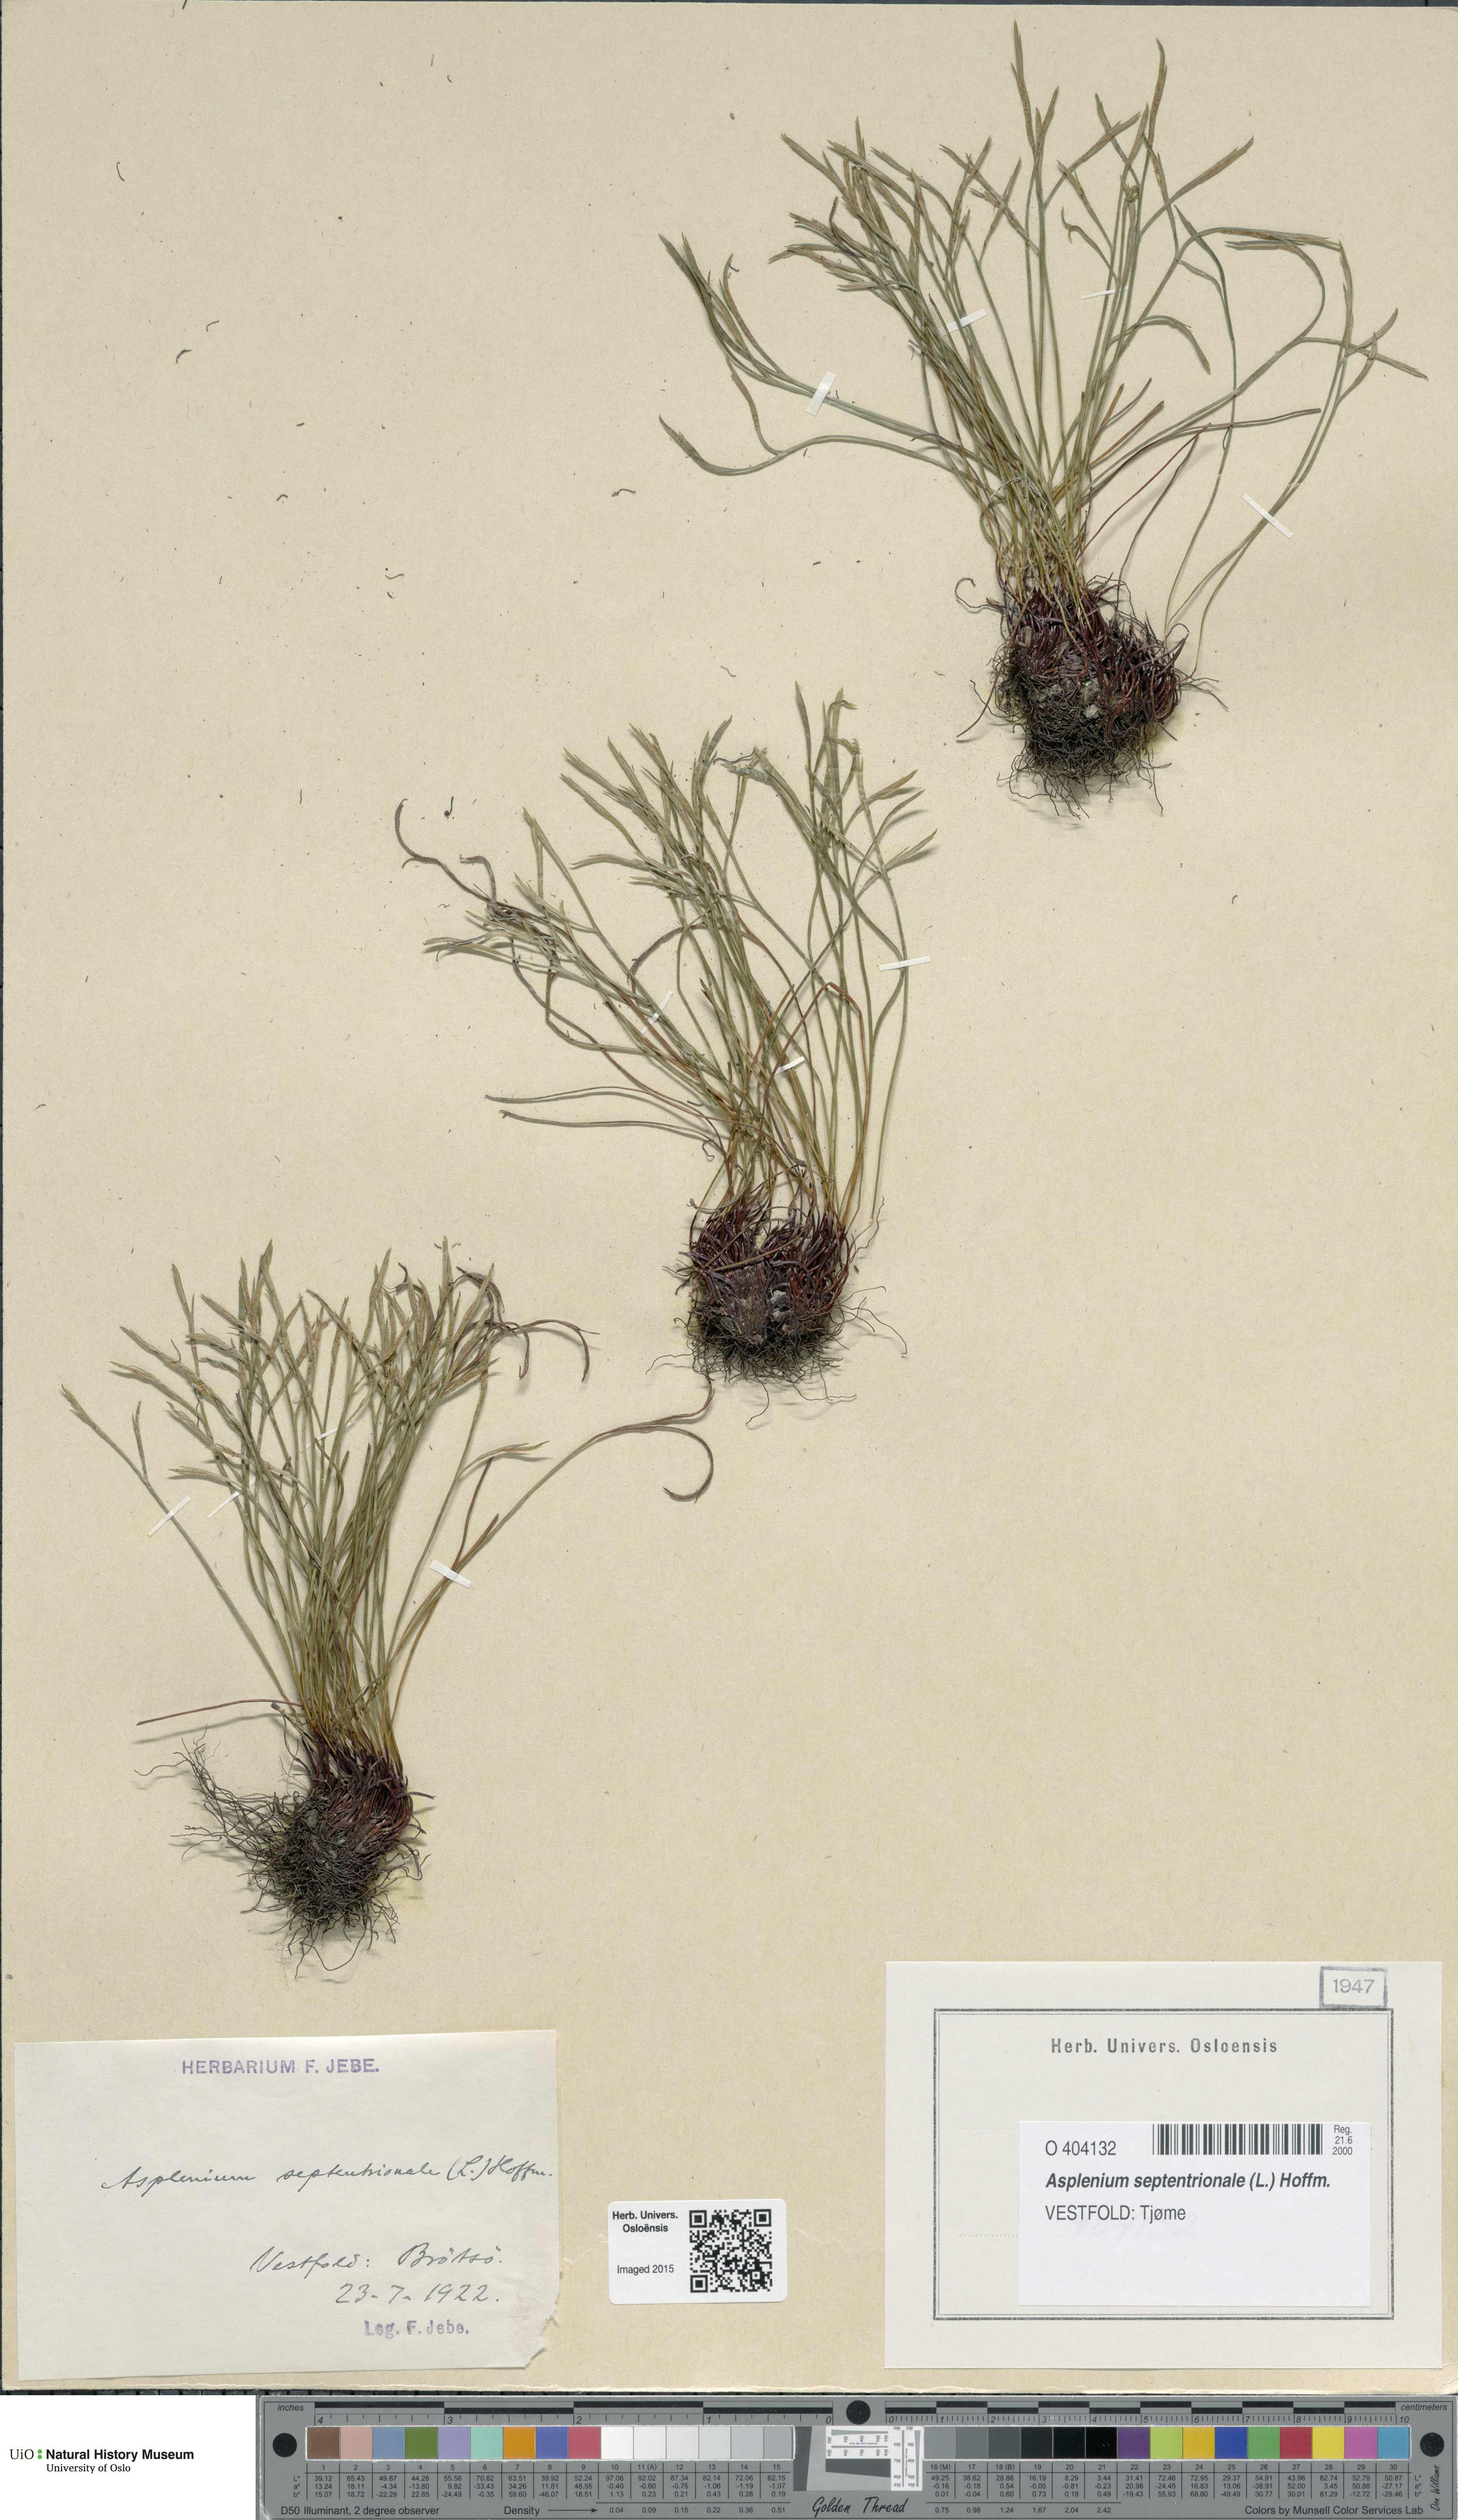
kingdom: Plantae
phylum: Tracheophyta
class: Polypodiopsida
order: Polypodiales
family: Aspleniaceae
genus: Asplenium
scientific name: Asplenium septentrionale
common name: Forked spleenwort
